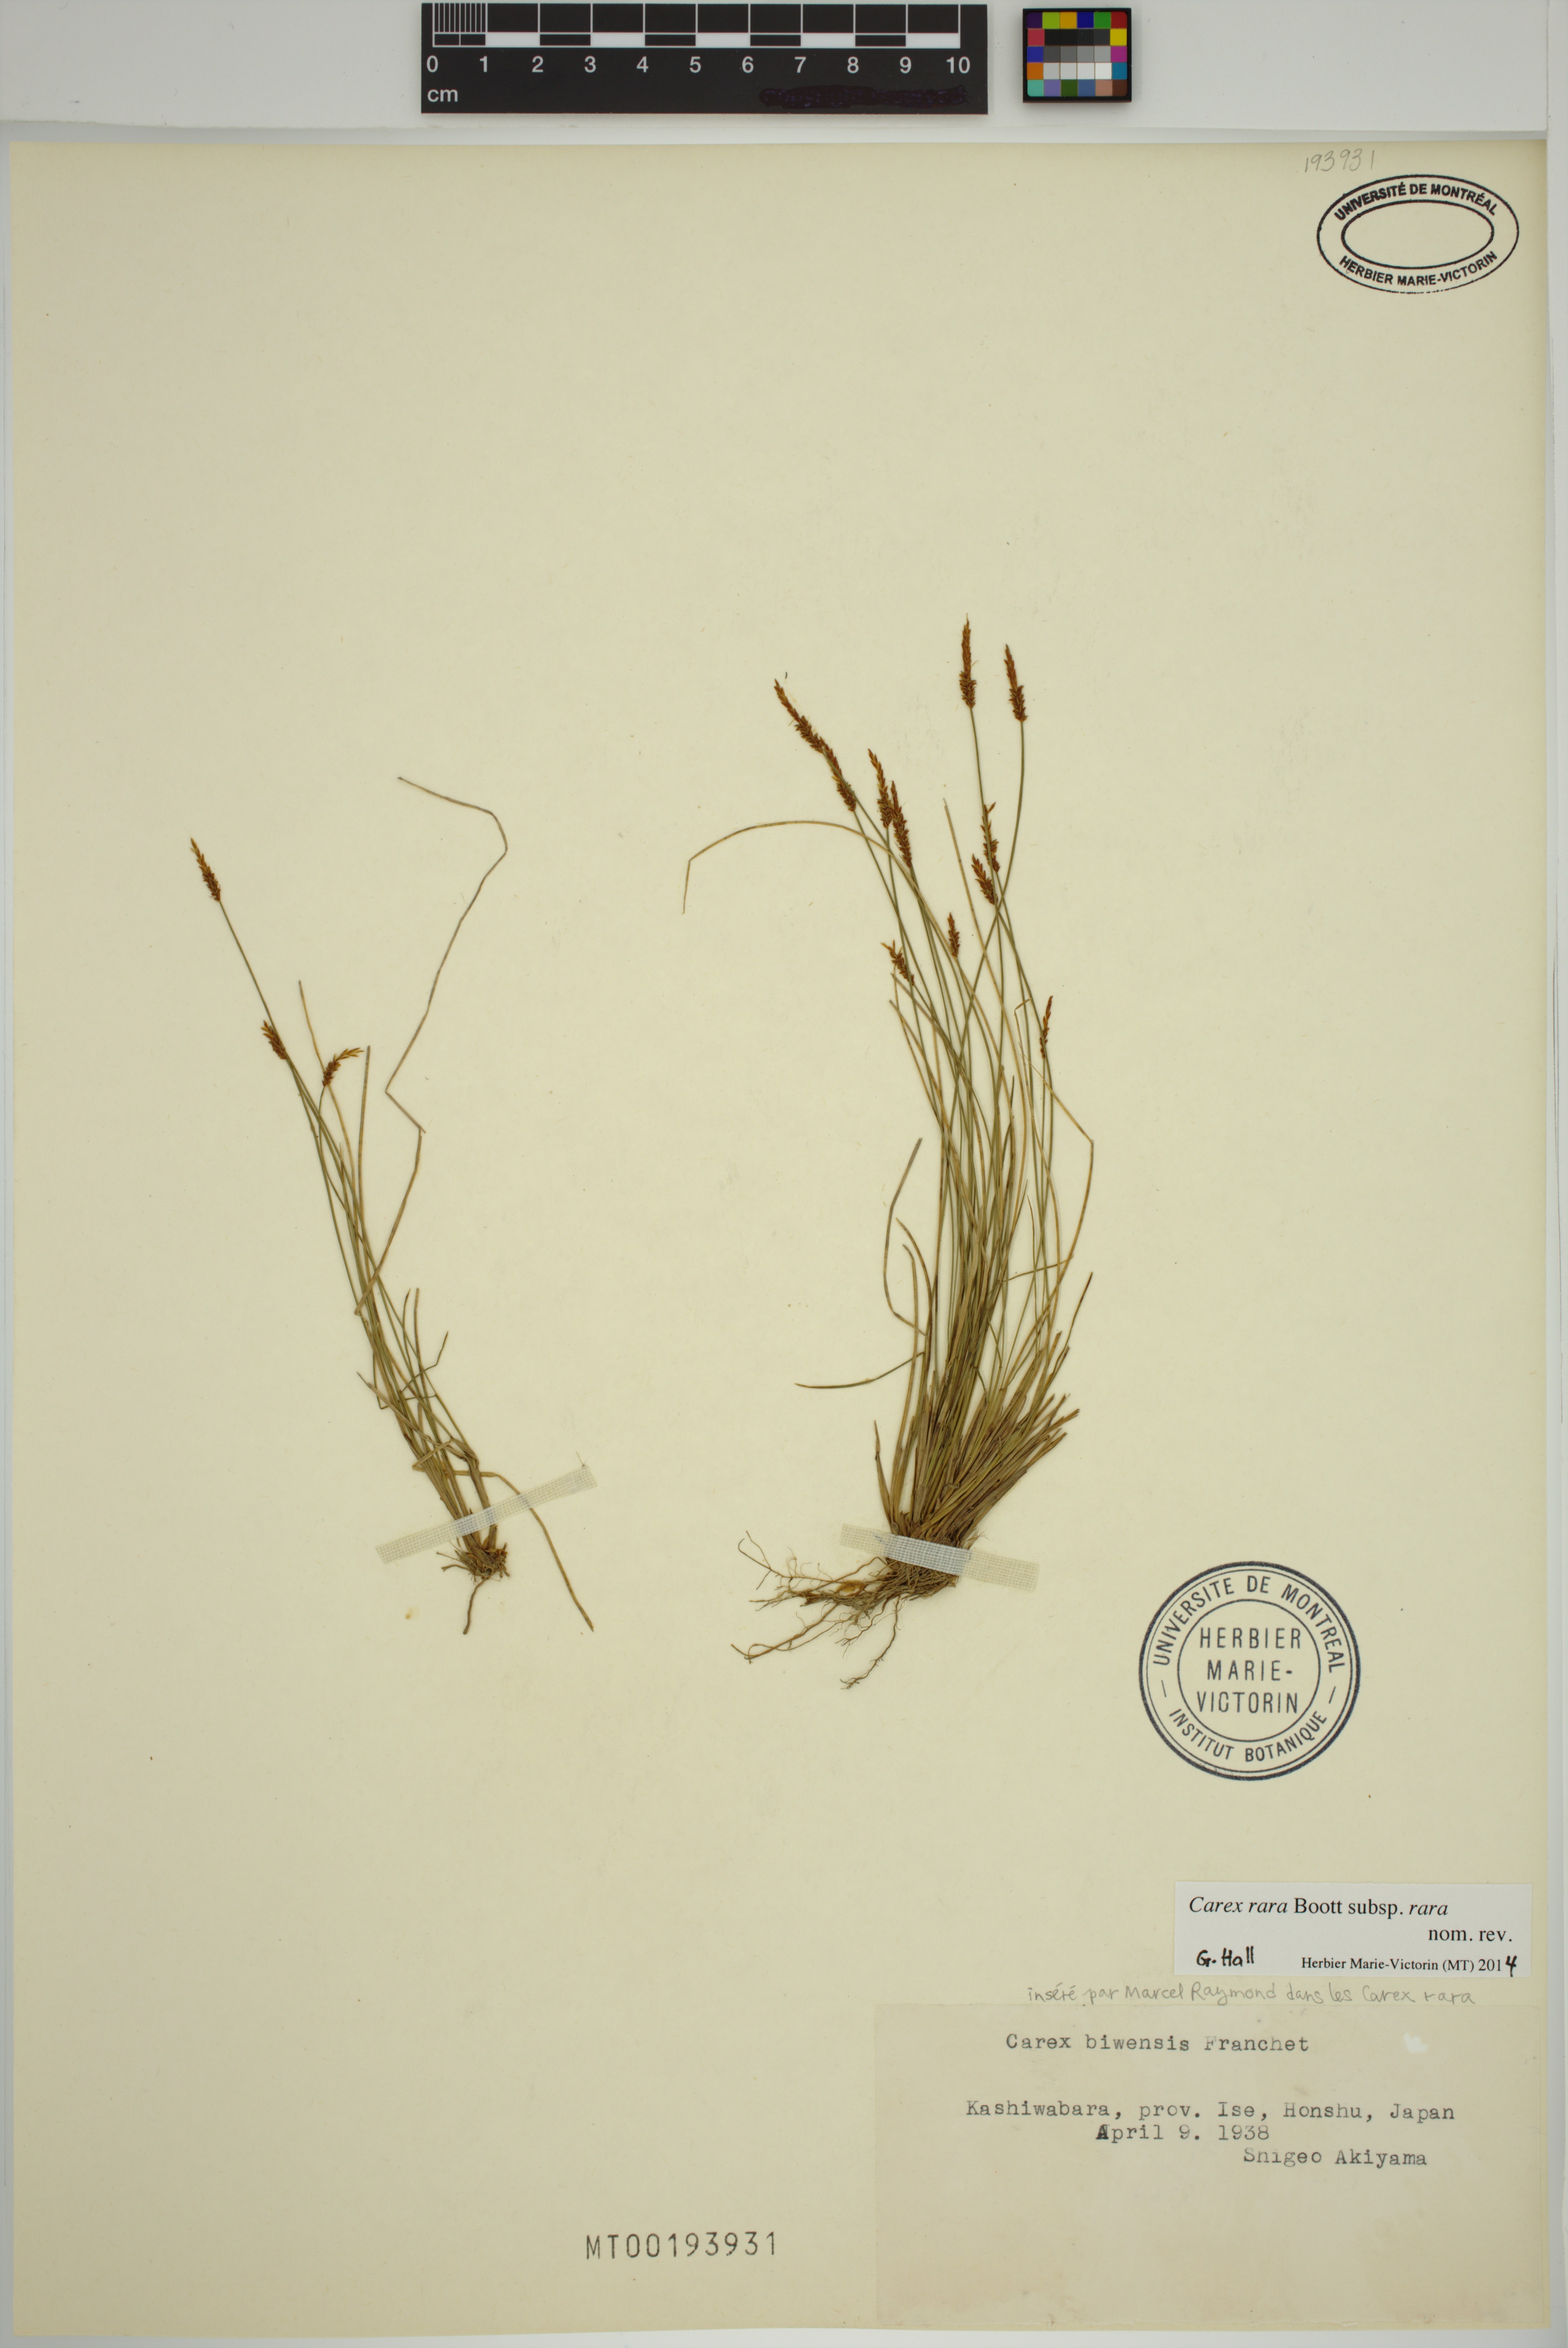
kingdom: Plantae
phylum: Tracheophyta
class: Liliopsida
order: Poales
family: Cyperaceae
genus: Carex
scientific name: Carex rara
